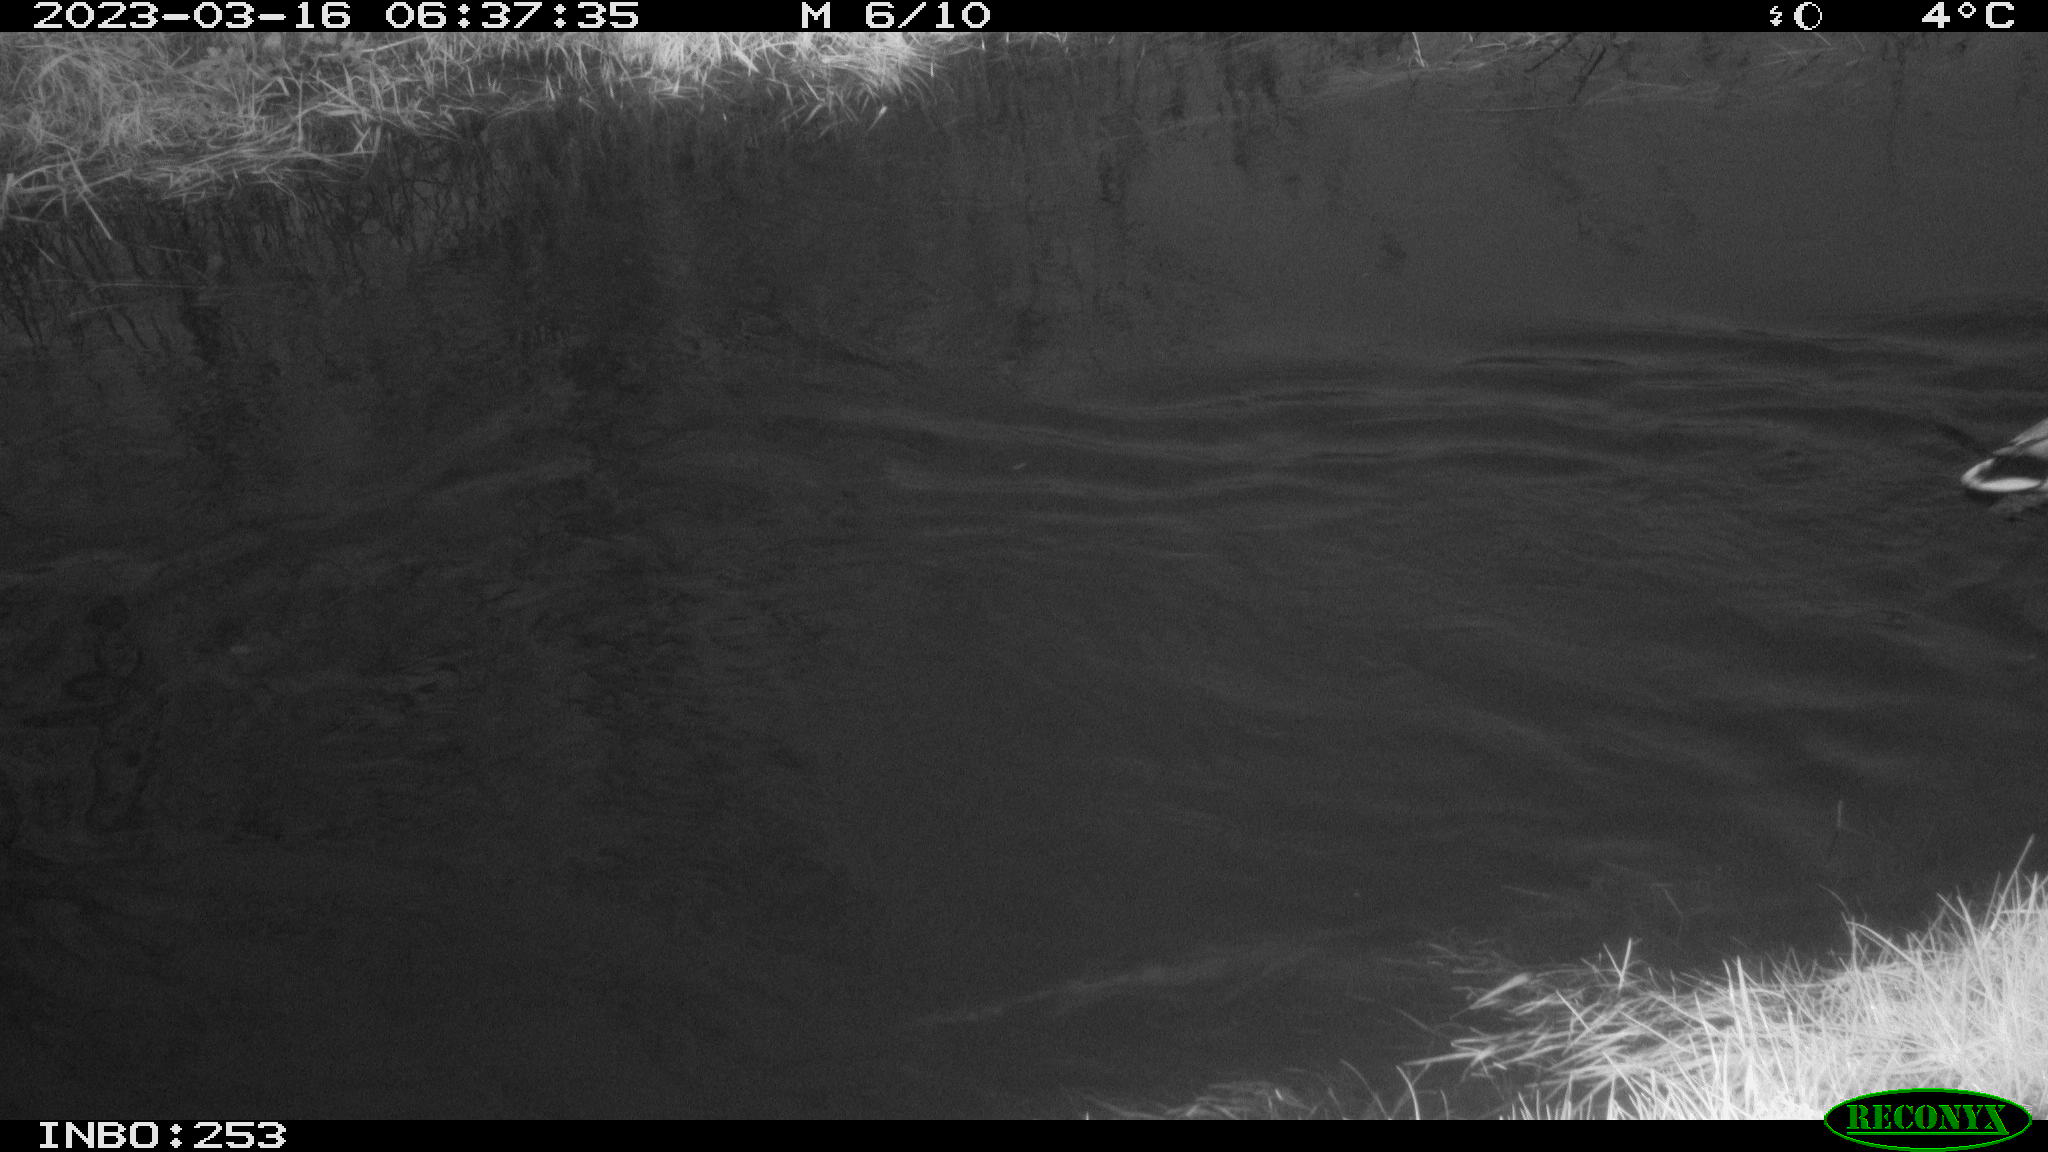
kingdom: Animalia
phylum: Chordata
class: Aves
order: Anseriformes
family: Anatidae
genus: Anas
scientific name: Anas
